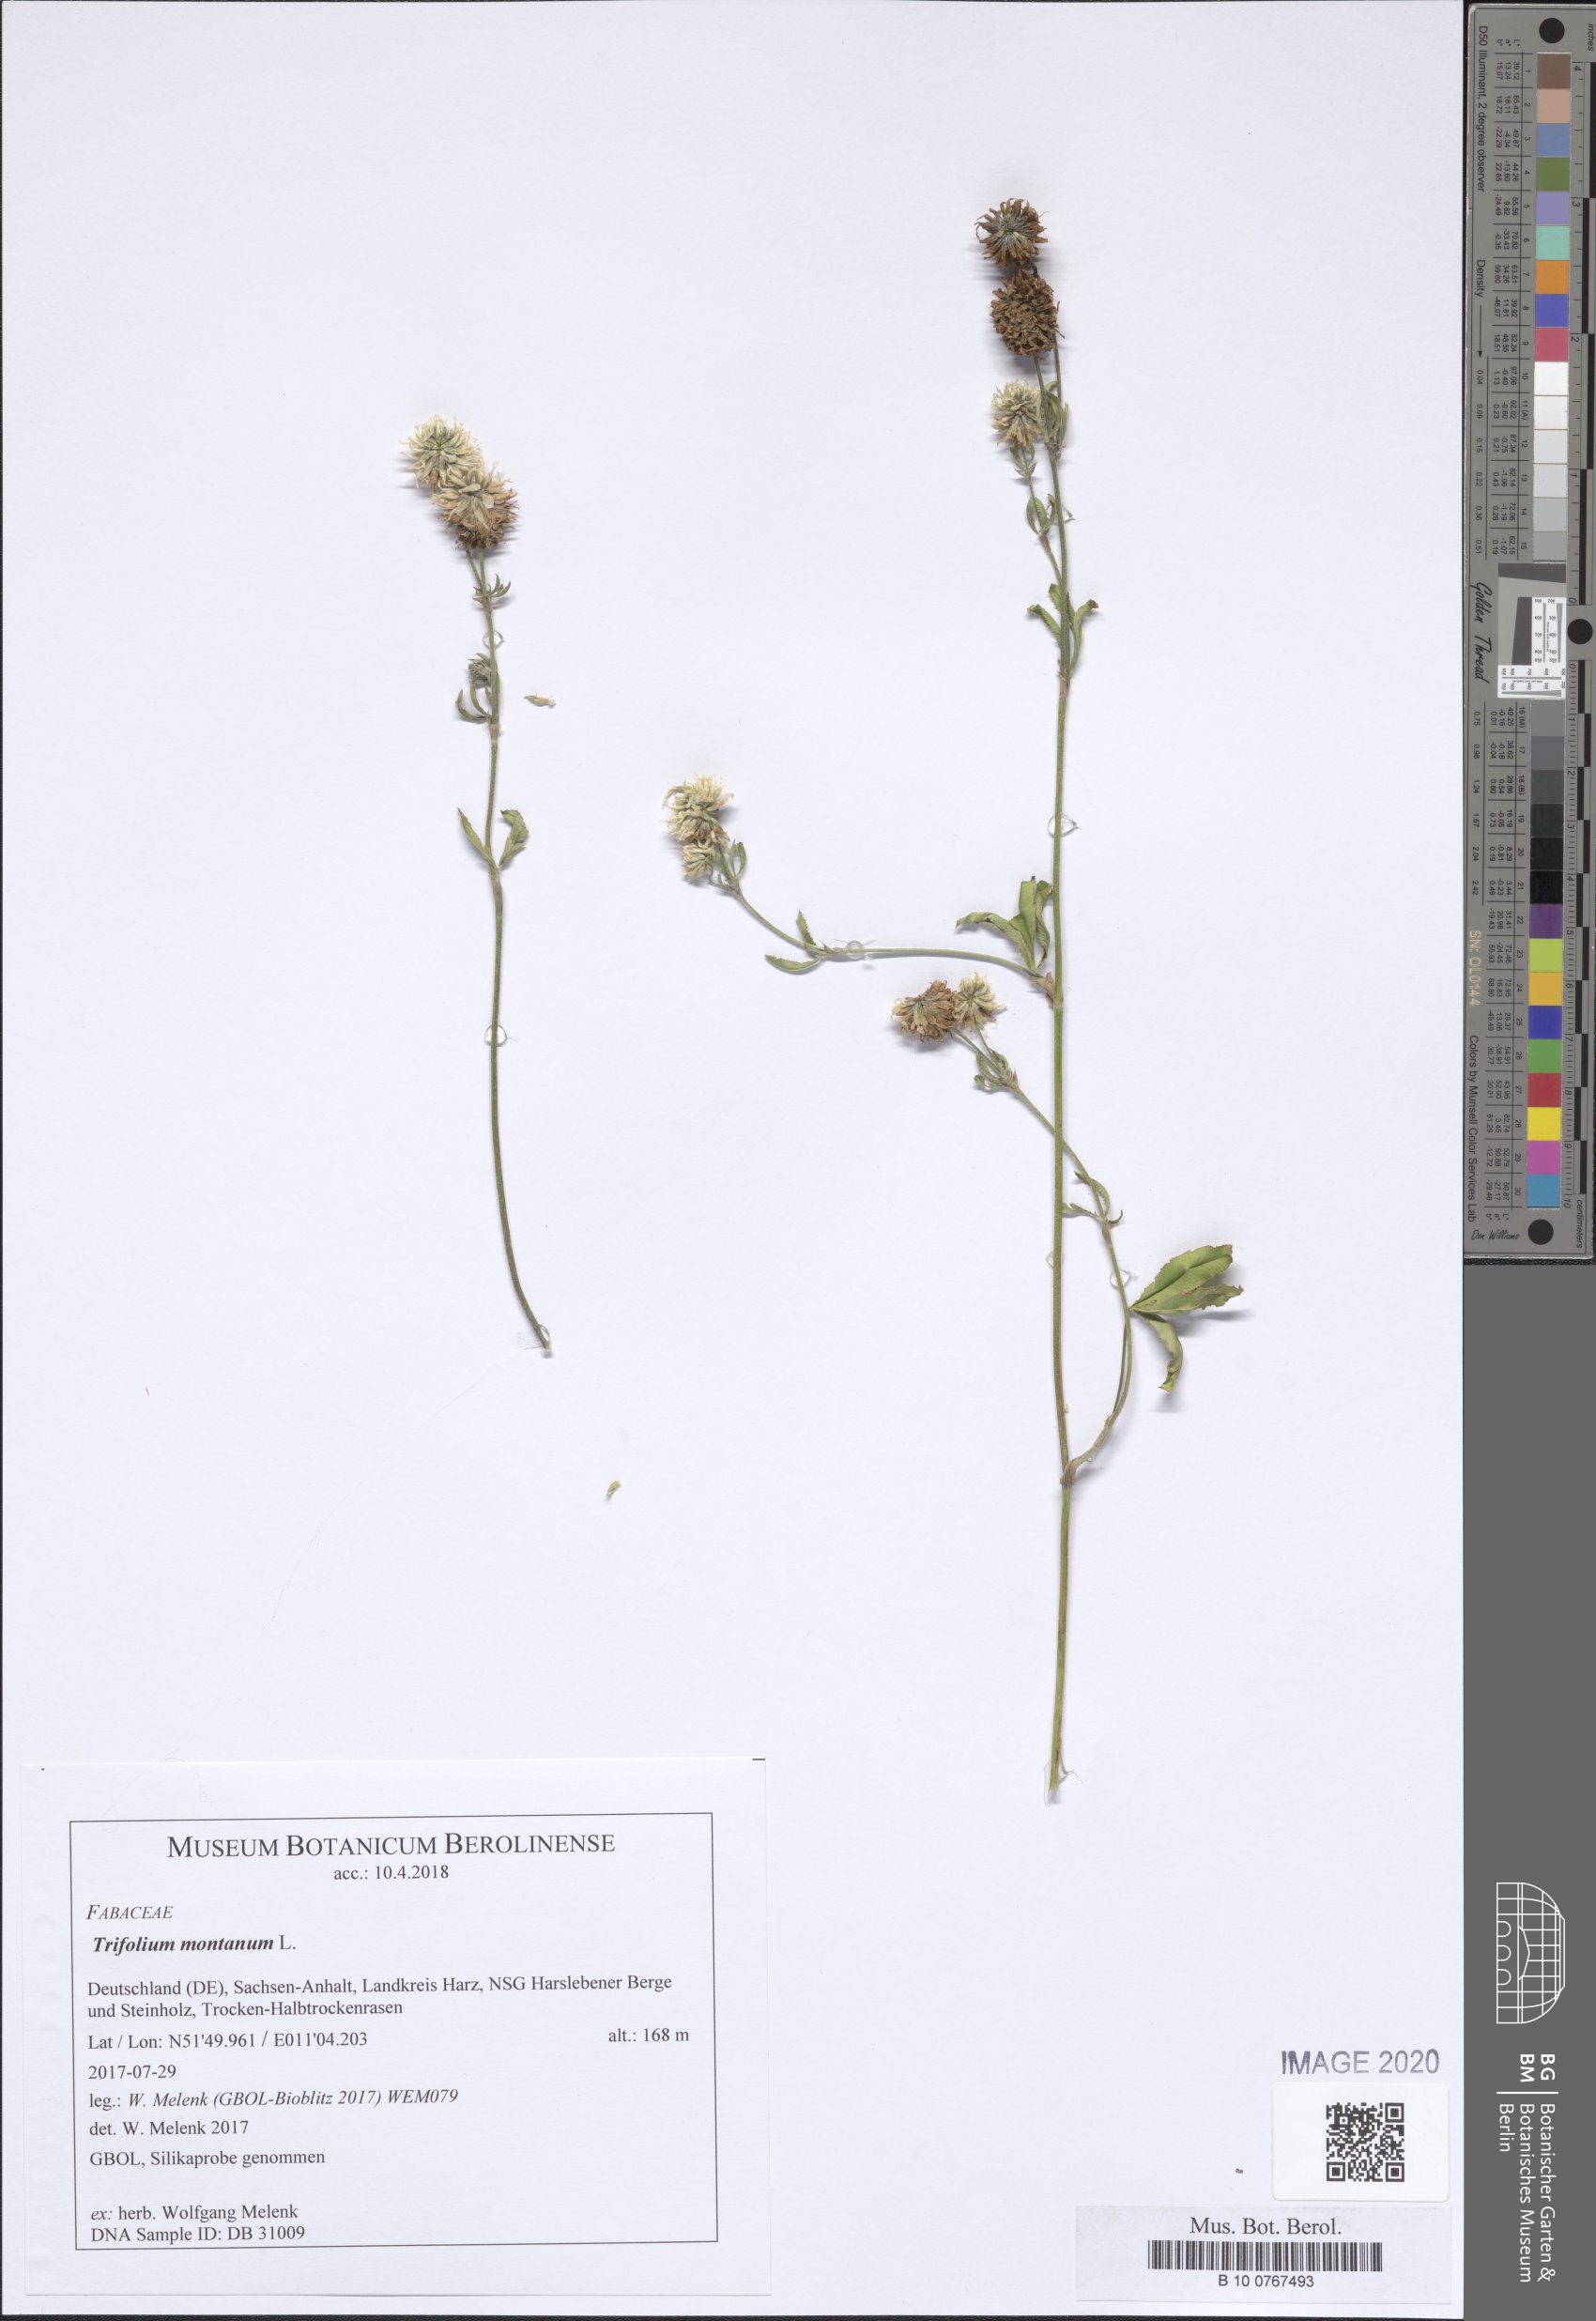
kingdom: Plantae
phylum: Tracheophyta
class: Magnoliopsida
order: Fabales
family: Fabaceae
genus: Trifolium
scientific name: Trifolium montanum
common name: Mountain clover
